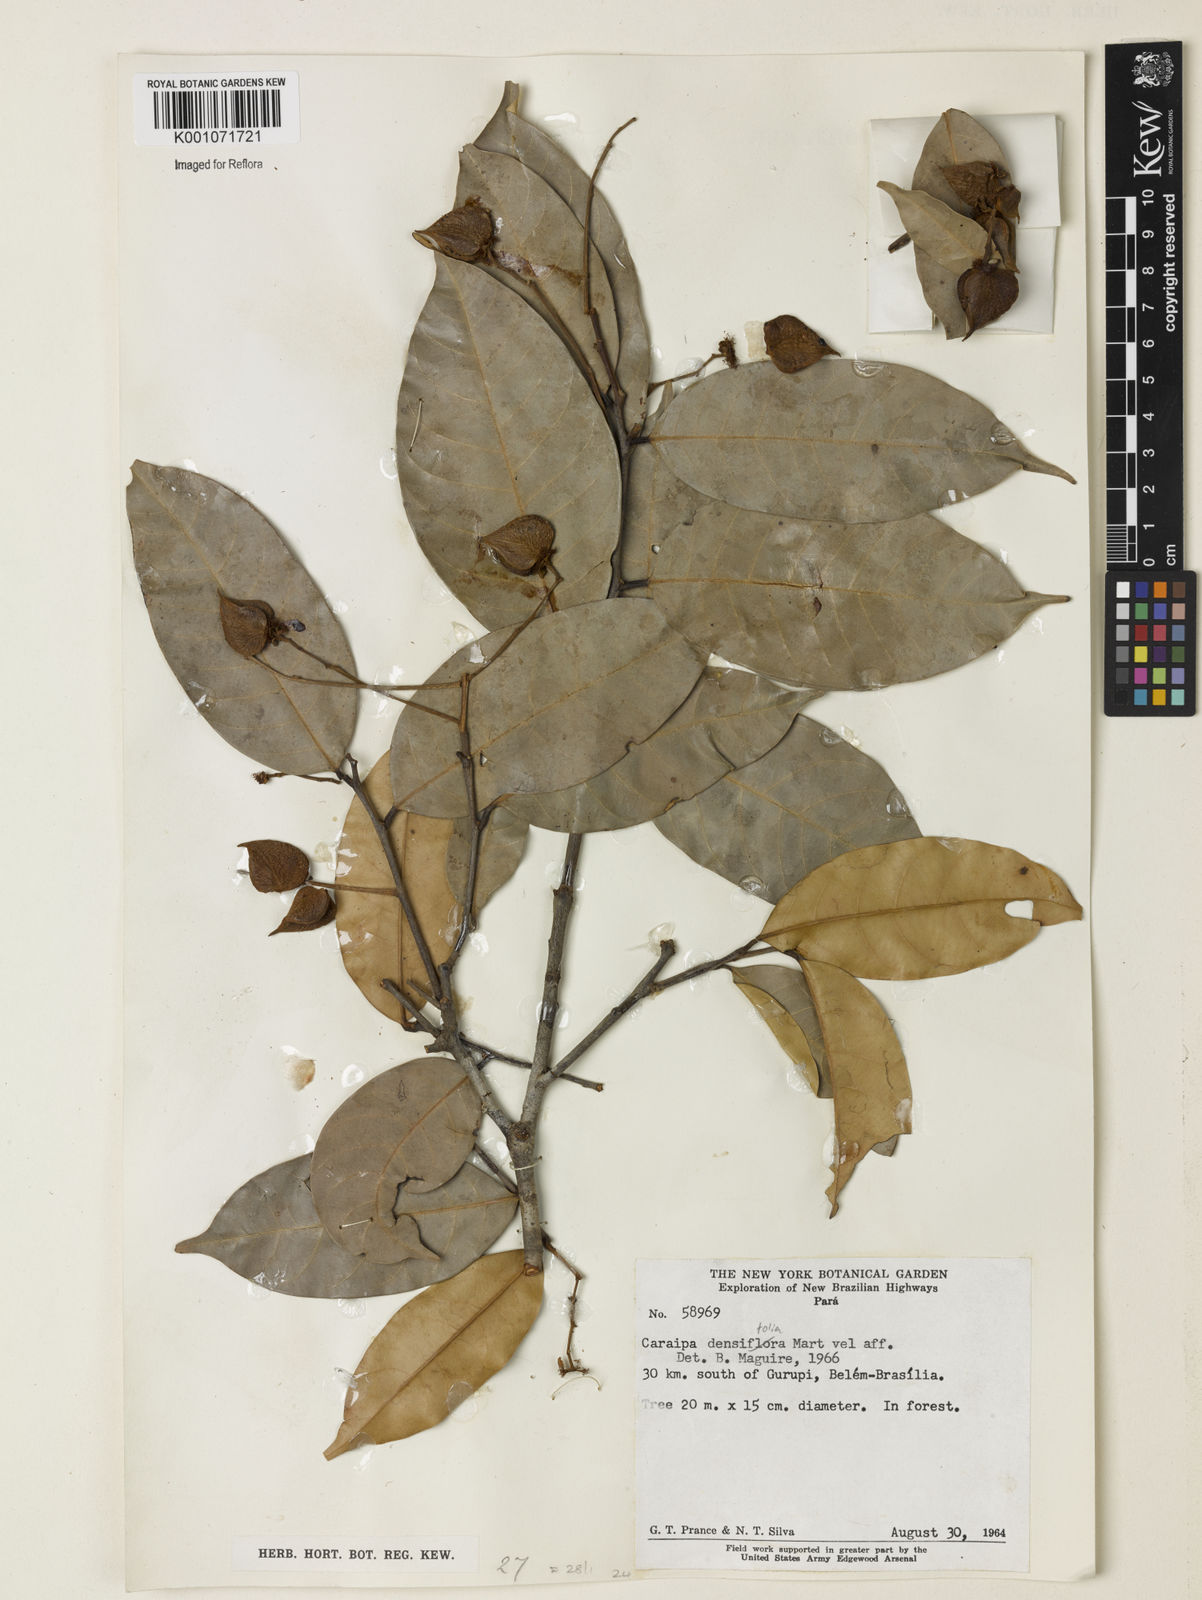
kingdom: Plantae
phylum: Tracheophyta
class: Magnoliopsida
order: Malpighiales
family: Calophyllaceae
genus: Caraipa
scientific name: Caraipa densifolia
